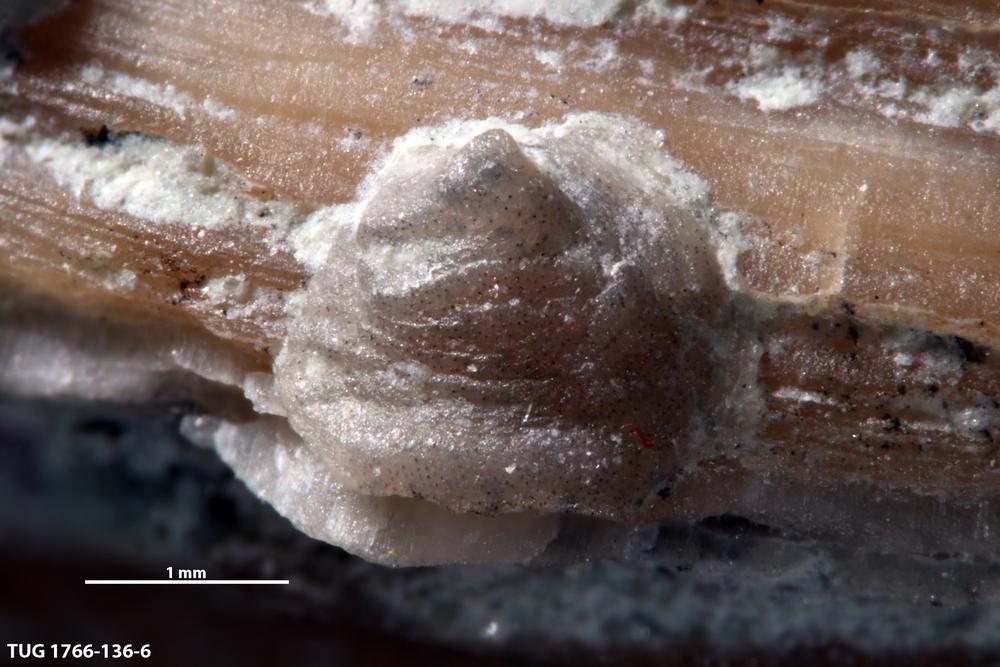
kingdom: Animalia
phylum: Brachiopoda
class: Craniata
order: Craniida
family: Craniidae
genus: Petrocrania
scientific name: Petrocrania
